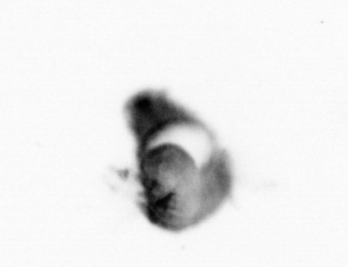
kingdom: Animalia
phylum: Annelida
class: Polychaeta
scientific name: Polychaeta
